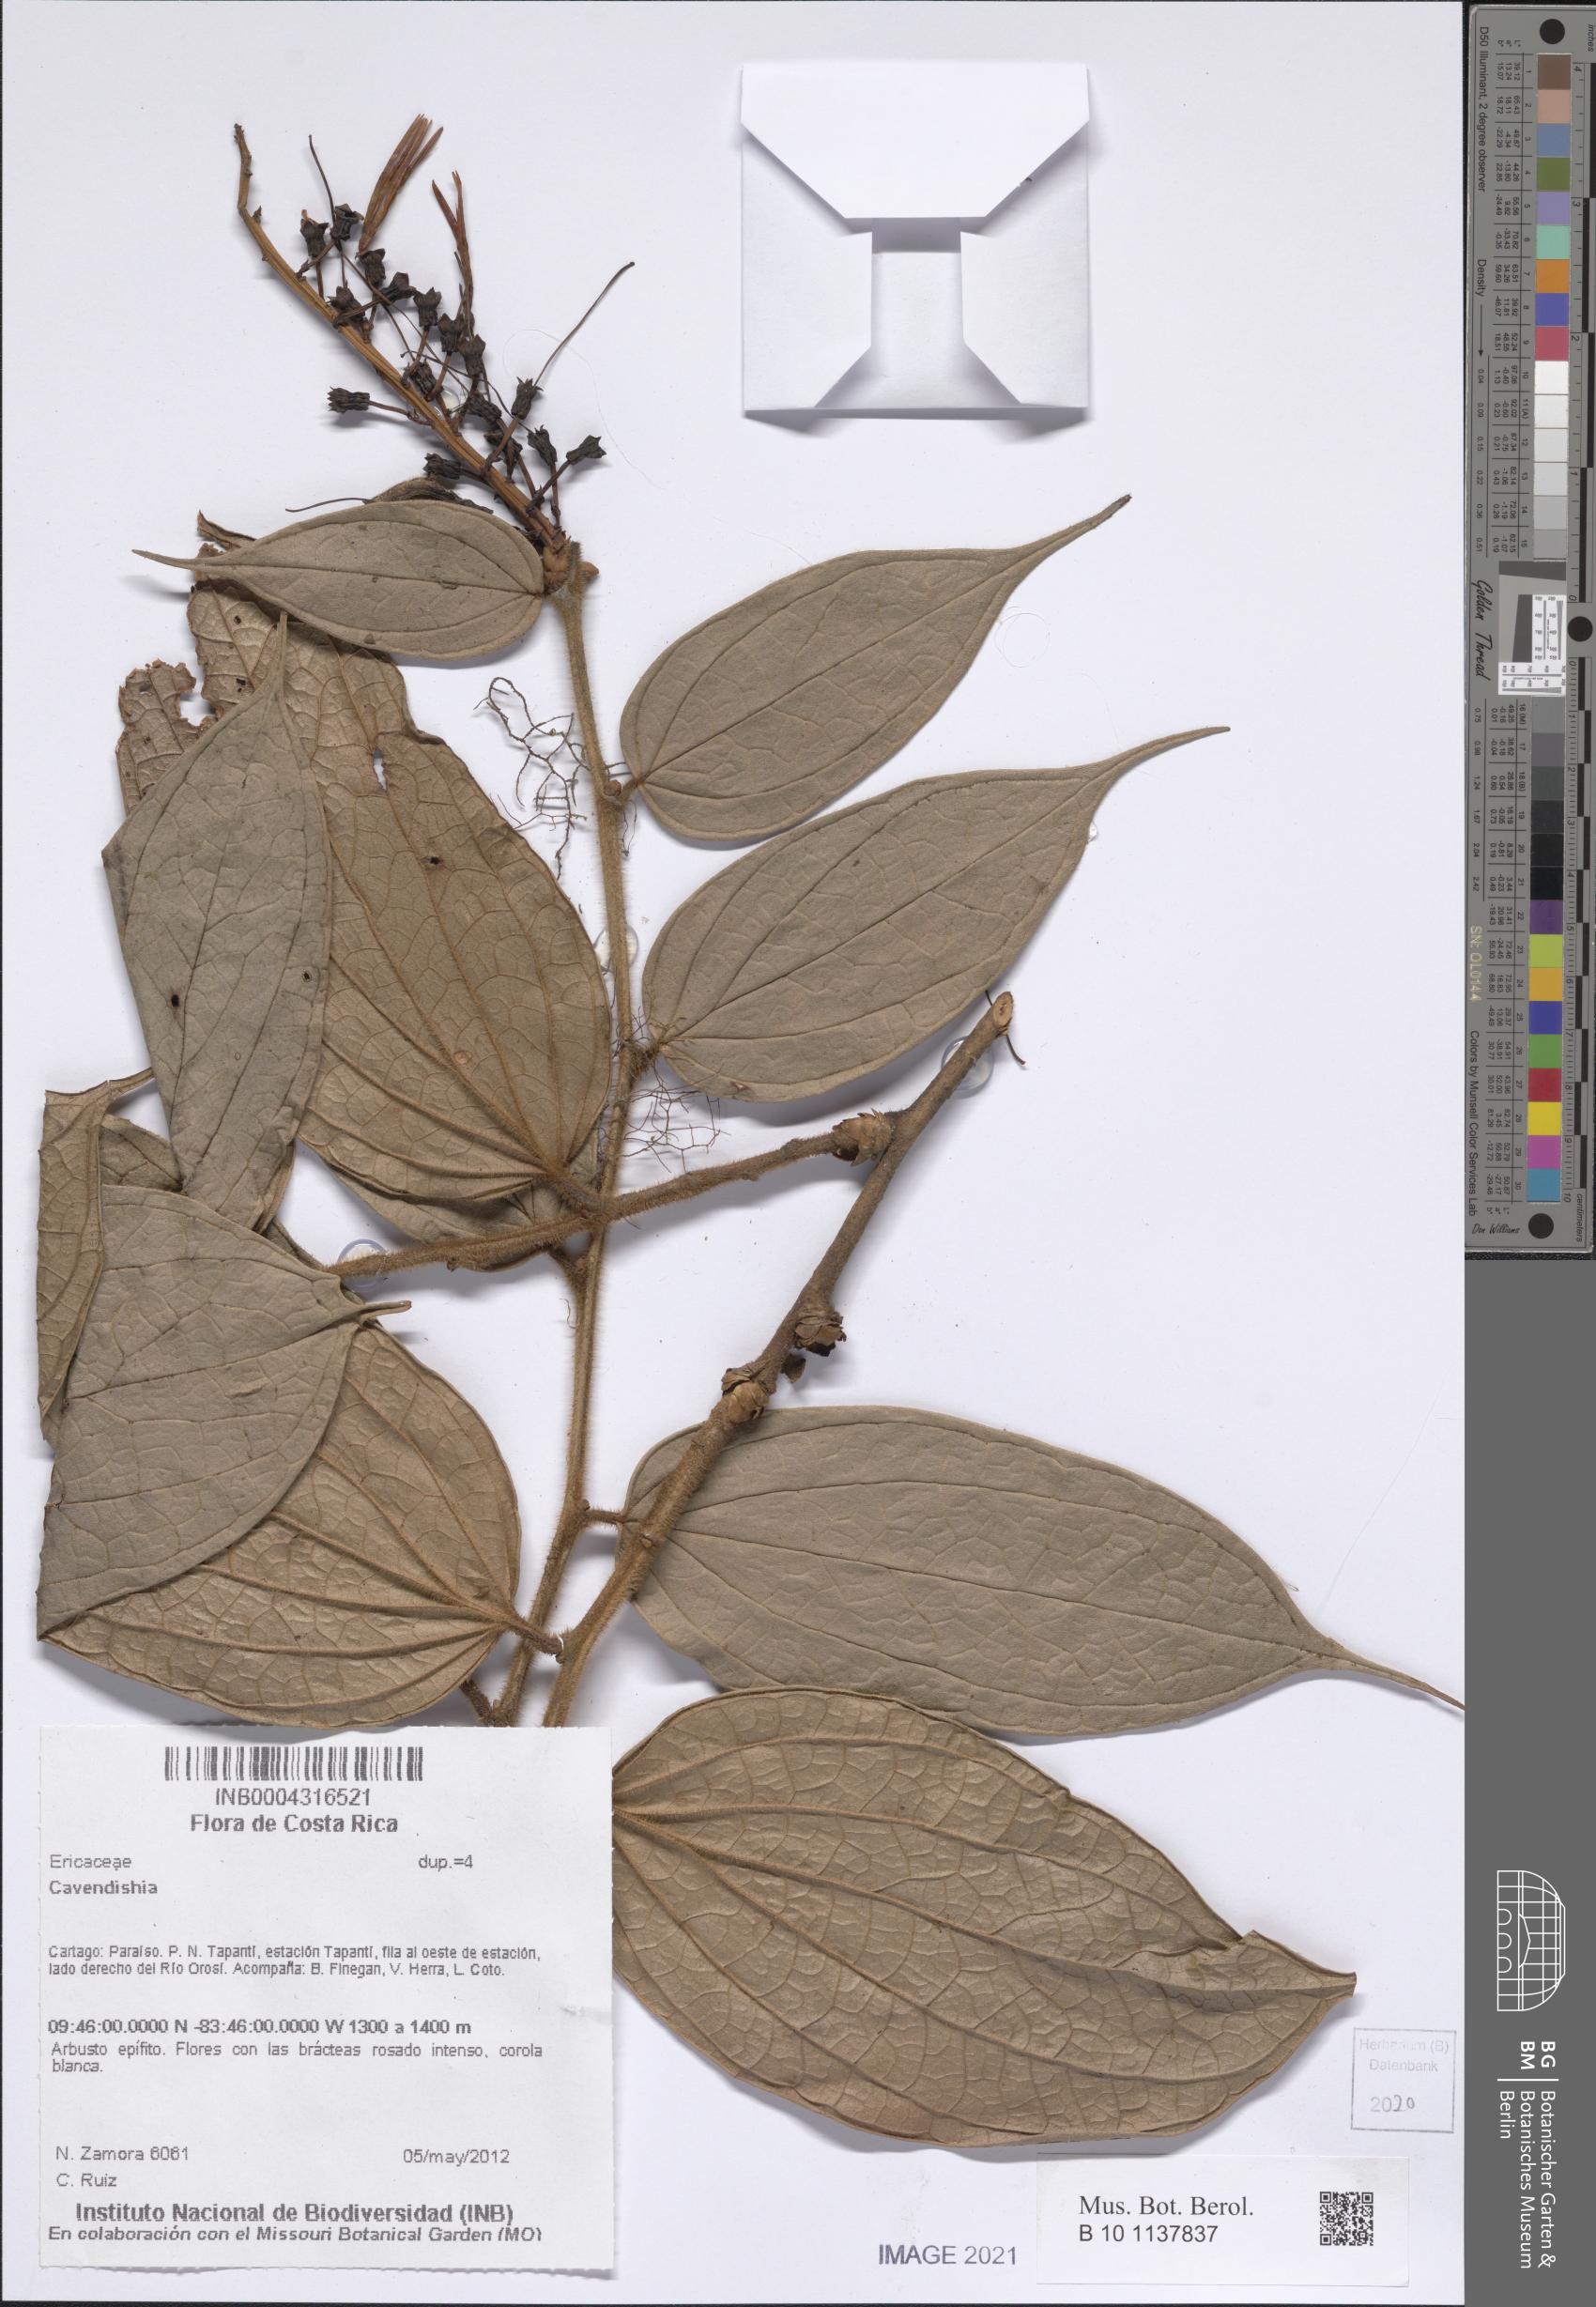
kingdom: Plantae
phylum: Tracheophyta
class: Magnoliopsida
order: Ericales
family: Ericaceae
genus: Cavendishia
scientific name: Cavendishia
